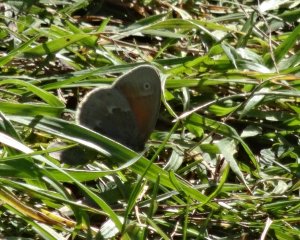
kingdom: Animalia
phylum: Arthropoda
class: Insecta
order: Lepidoptera
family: Nymphalidae
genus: Coenonympha
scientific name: Coenonympha tullia
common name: Large Heath
